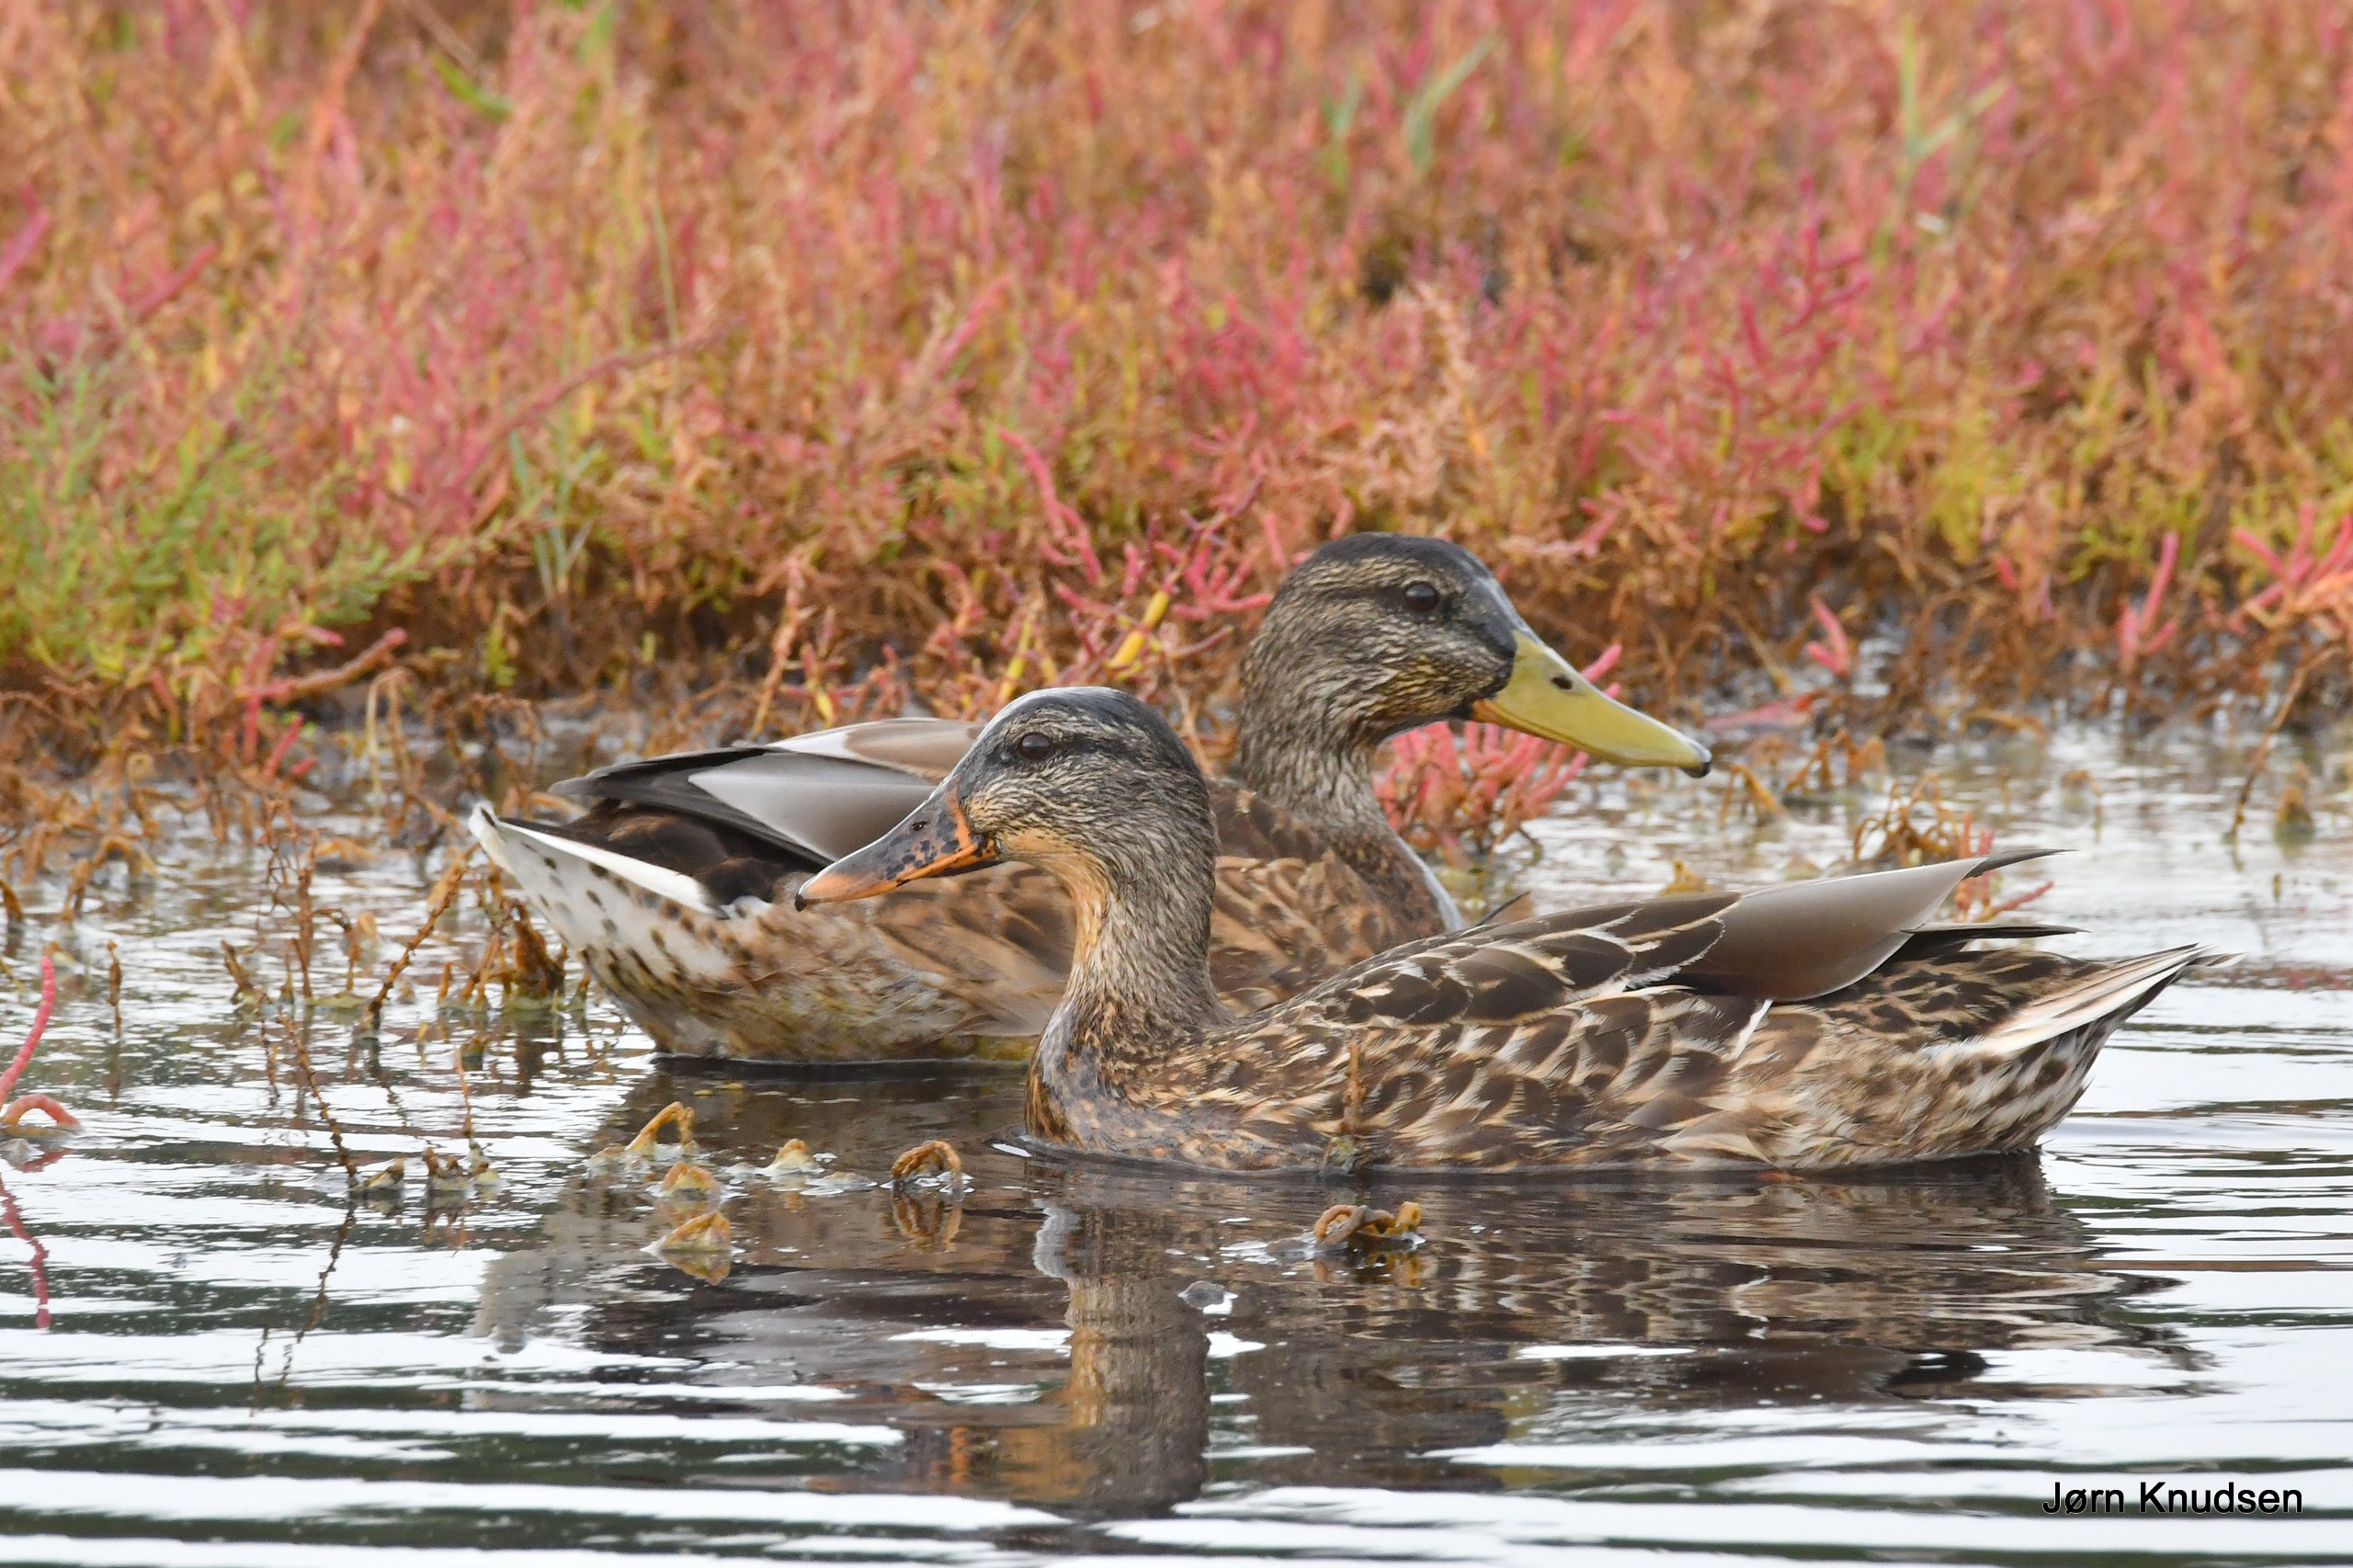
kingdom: Animalia
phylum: Chordata
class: Aves
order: Anseriformes
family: Anatidae
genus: Anas
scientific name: Anas platyrhynchos
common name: Gråand
